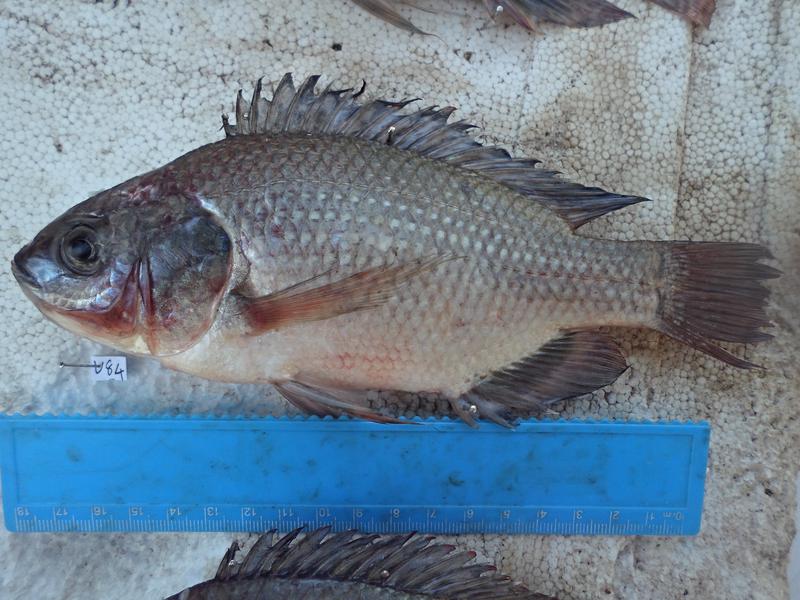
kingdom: Animalia
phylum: Chordata
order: Perciformes
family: Cichlidae
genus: Oreochromis
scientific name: Oreochromis esculentus
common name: Carp
